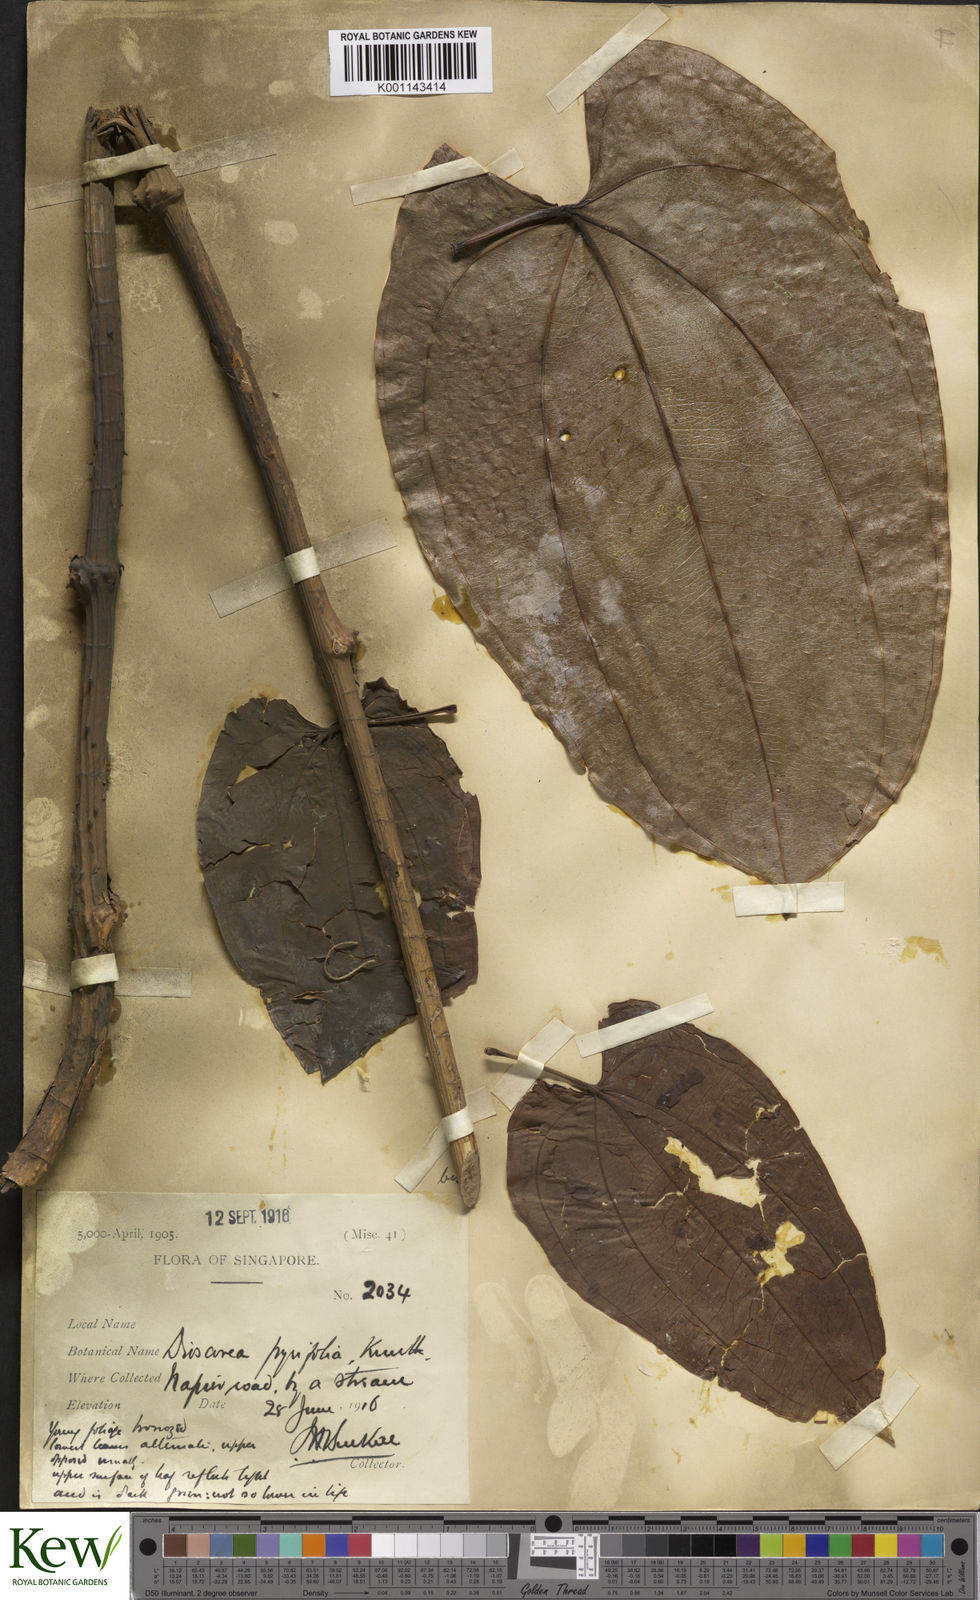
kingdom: Plantae
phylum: Tracheophyta
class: Liliopsida
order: Dioscoreales
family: Dioscoreaceae
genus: Dioscorea
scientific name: Dioscorea pyrifolia
